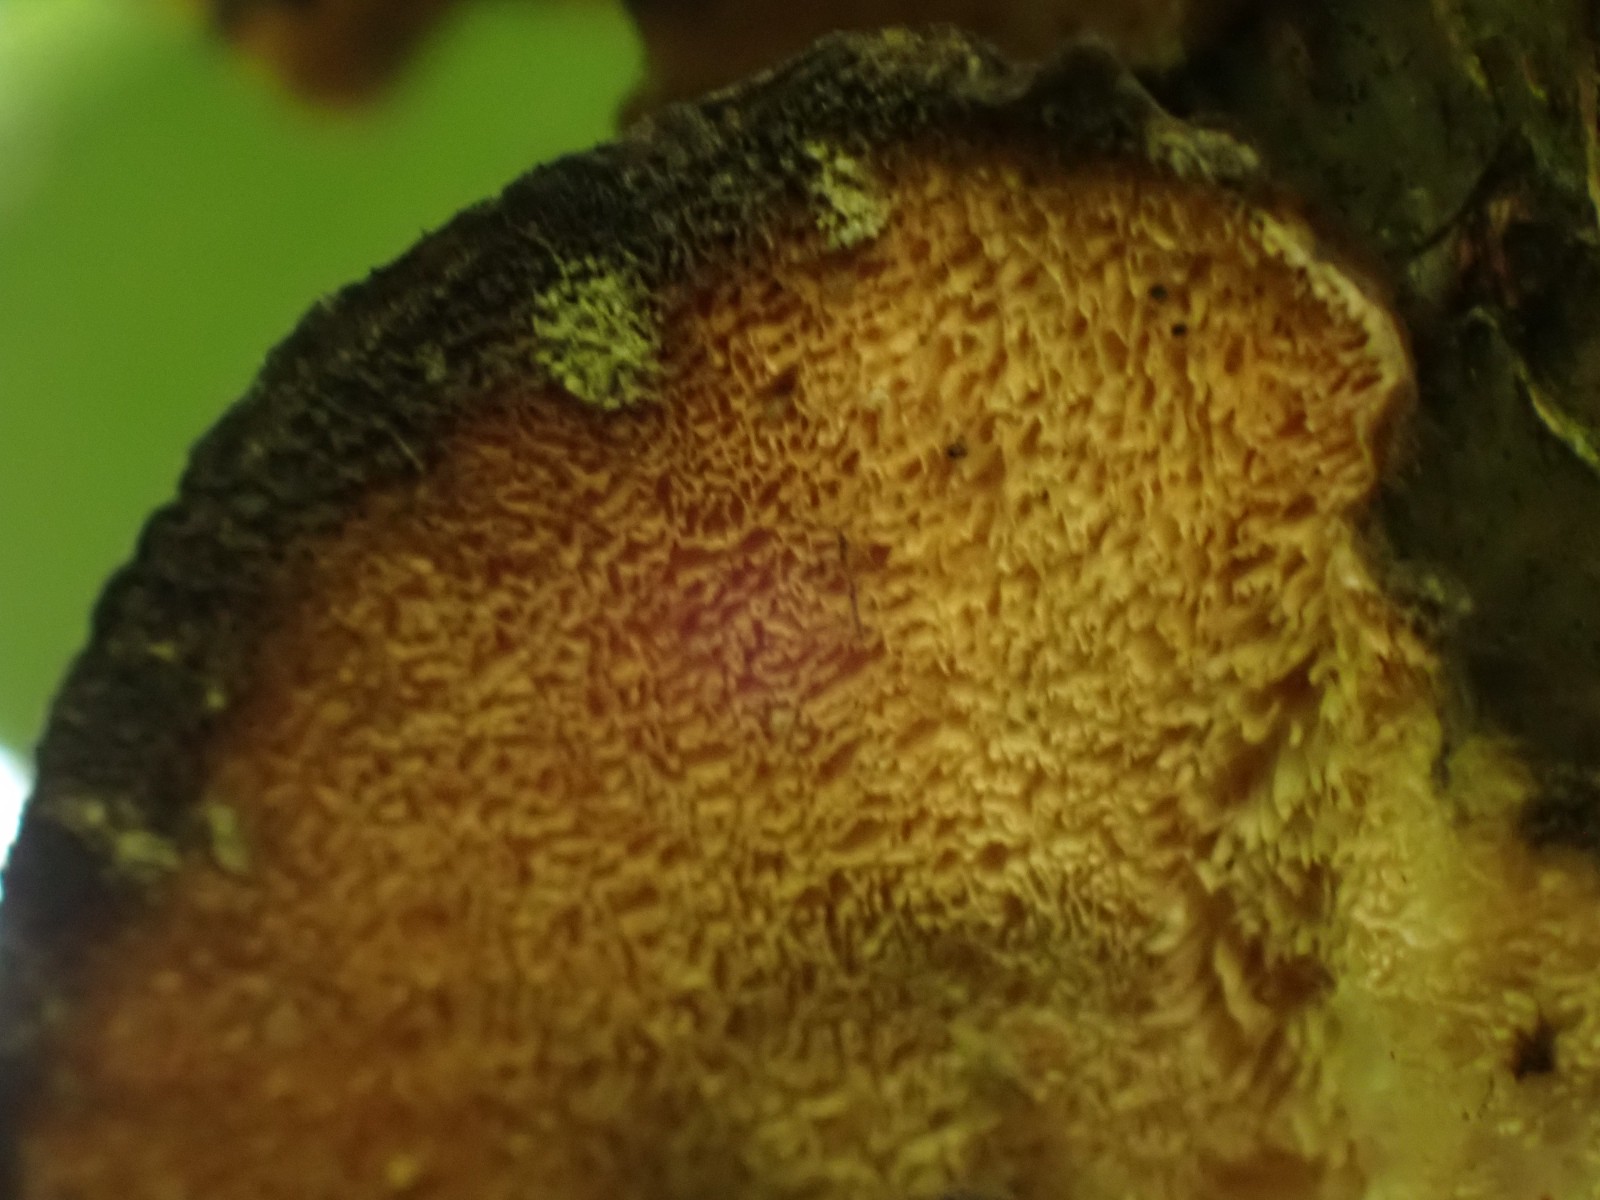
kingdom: Fungi
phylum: Basidiomycota
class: Agaricomycetes
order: Polyporales
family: Polyporaceae
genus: Trametes
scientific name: Trametes versicolor
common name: broget læderporesvamp
